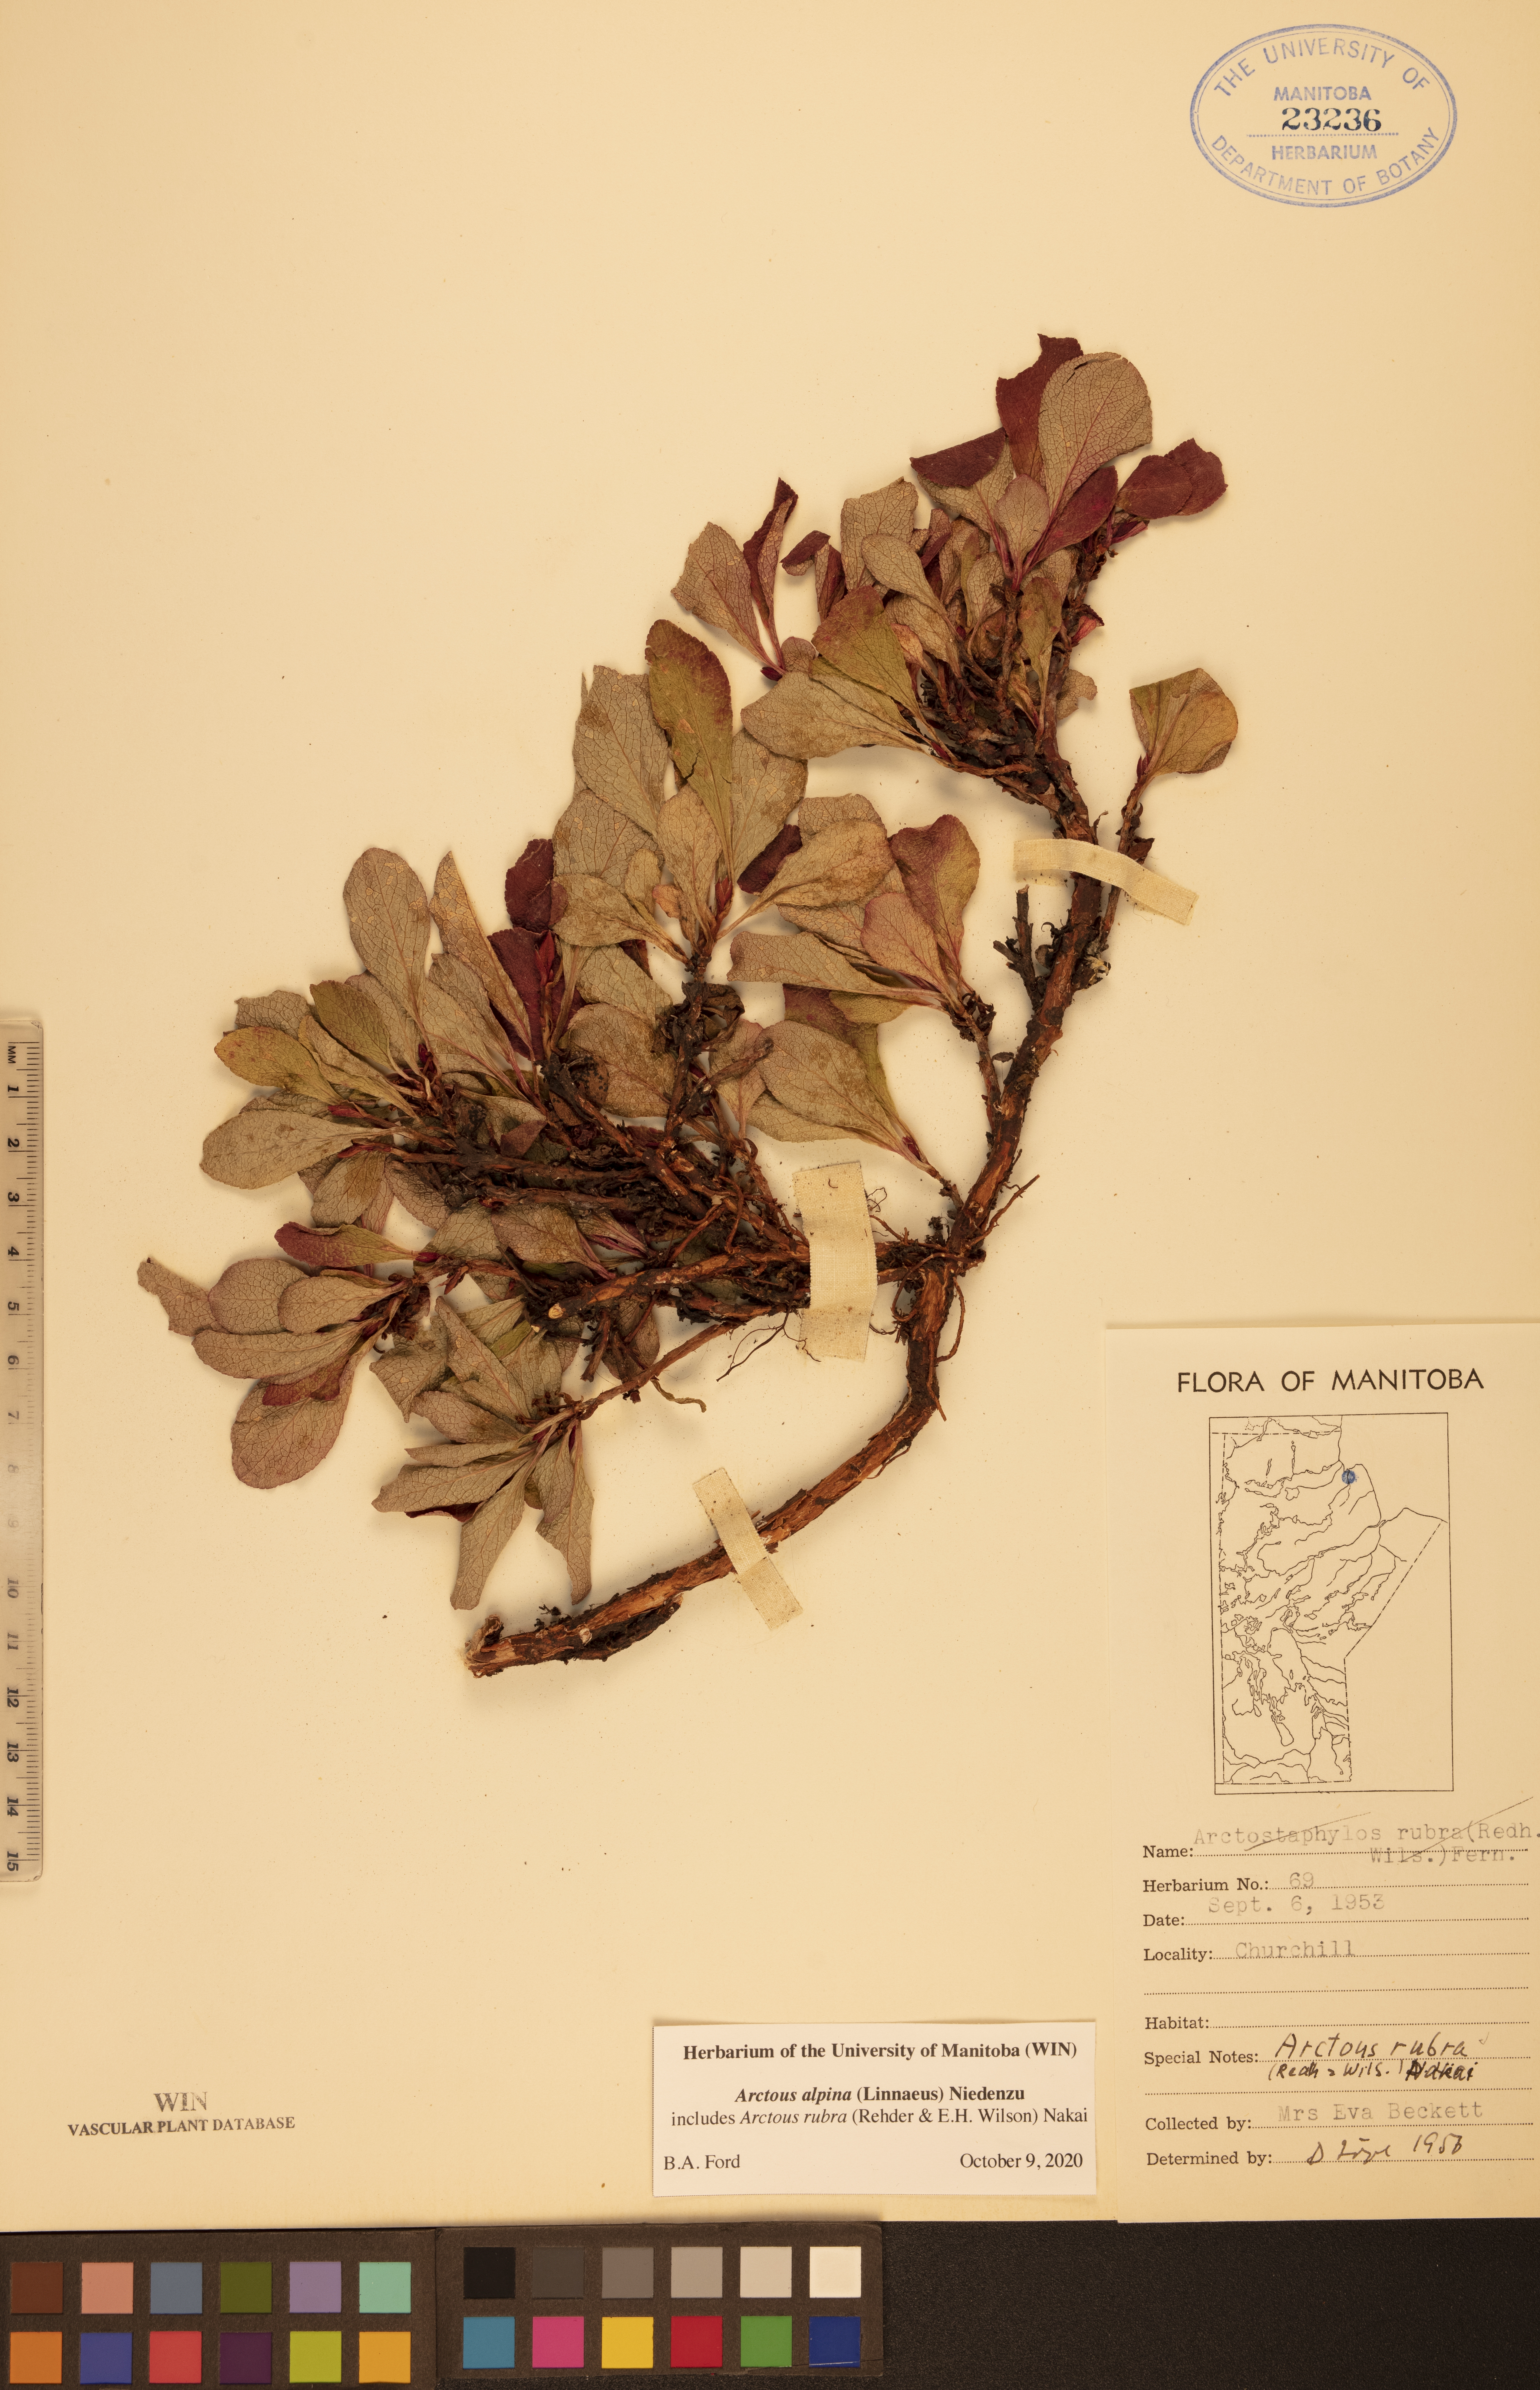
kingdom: Plantae
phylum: Tracheophyta
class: Magnoliopsida
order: Ericales
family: Ericaceae
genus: Arctostaphylos
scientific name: Arctostaphylos alpinus
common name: Alpine bearberry
